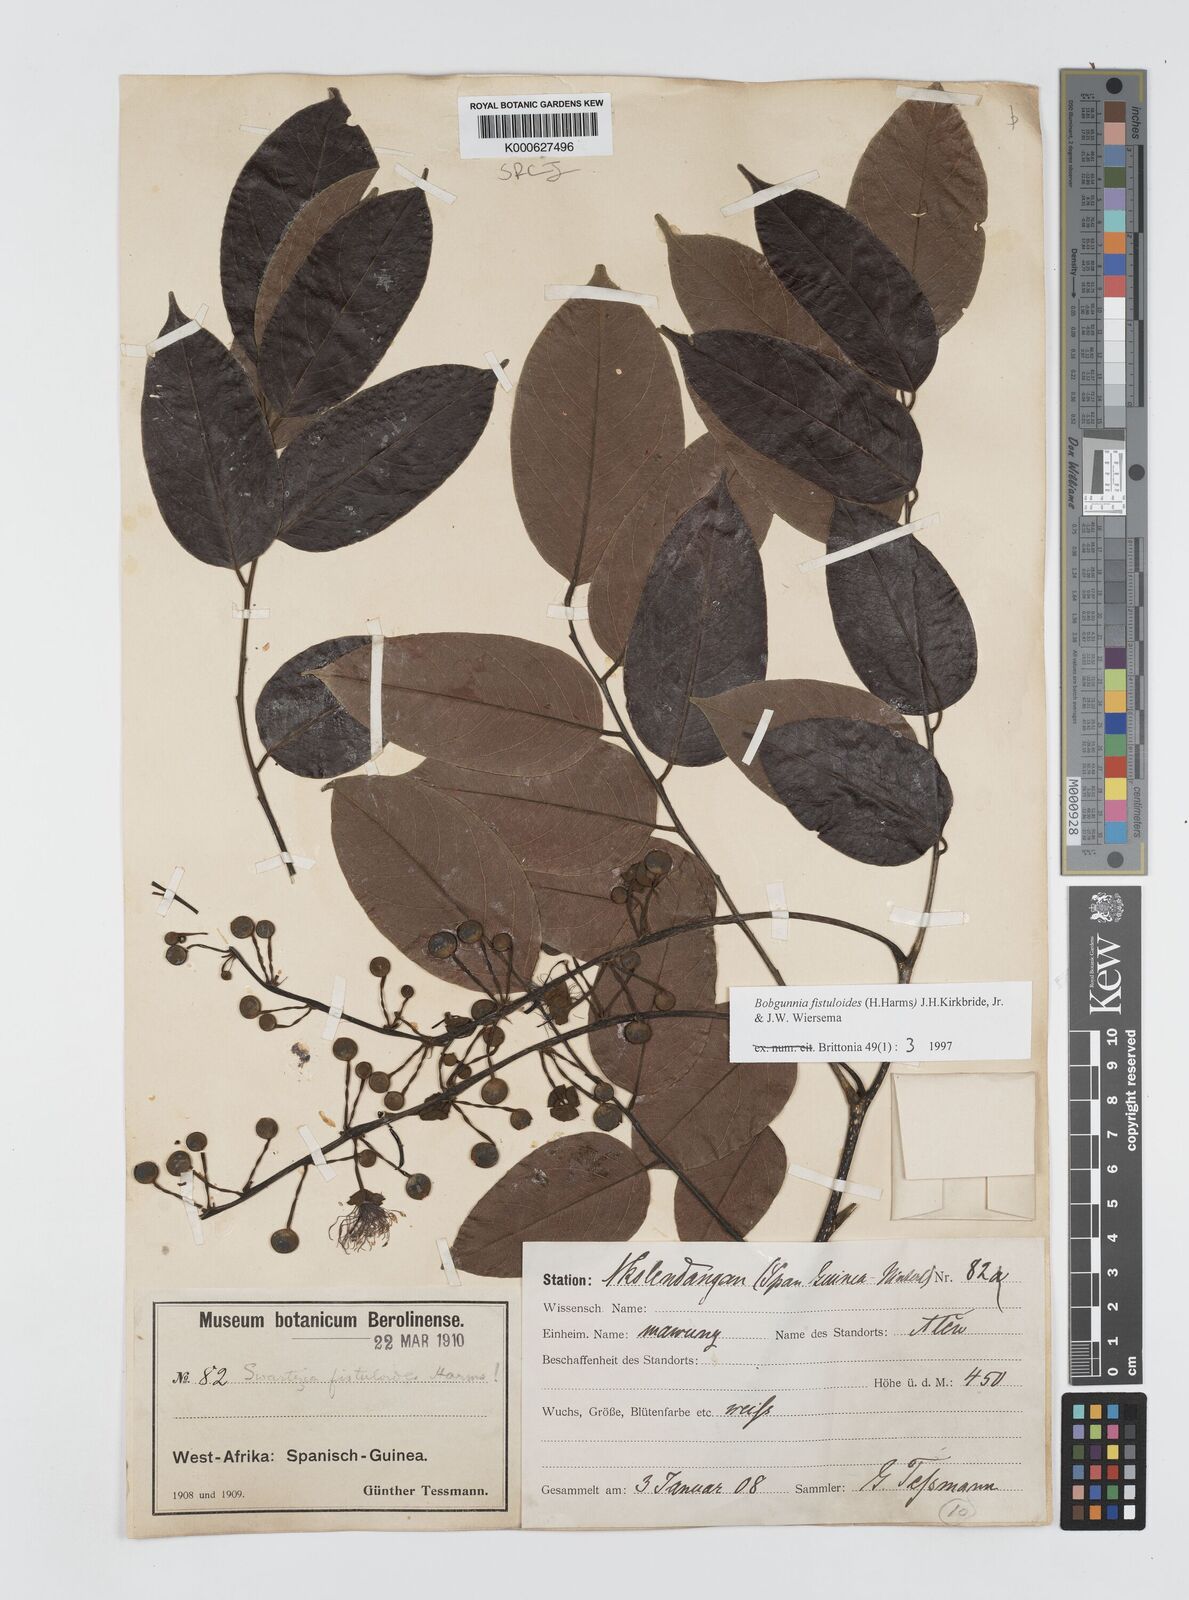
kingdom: Plantae
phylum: Tracheophyta
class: Magnoliopsida
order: Fabales
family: Fabaceae
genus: Bobgunnia
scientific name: Bobgunnia fistuloides
